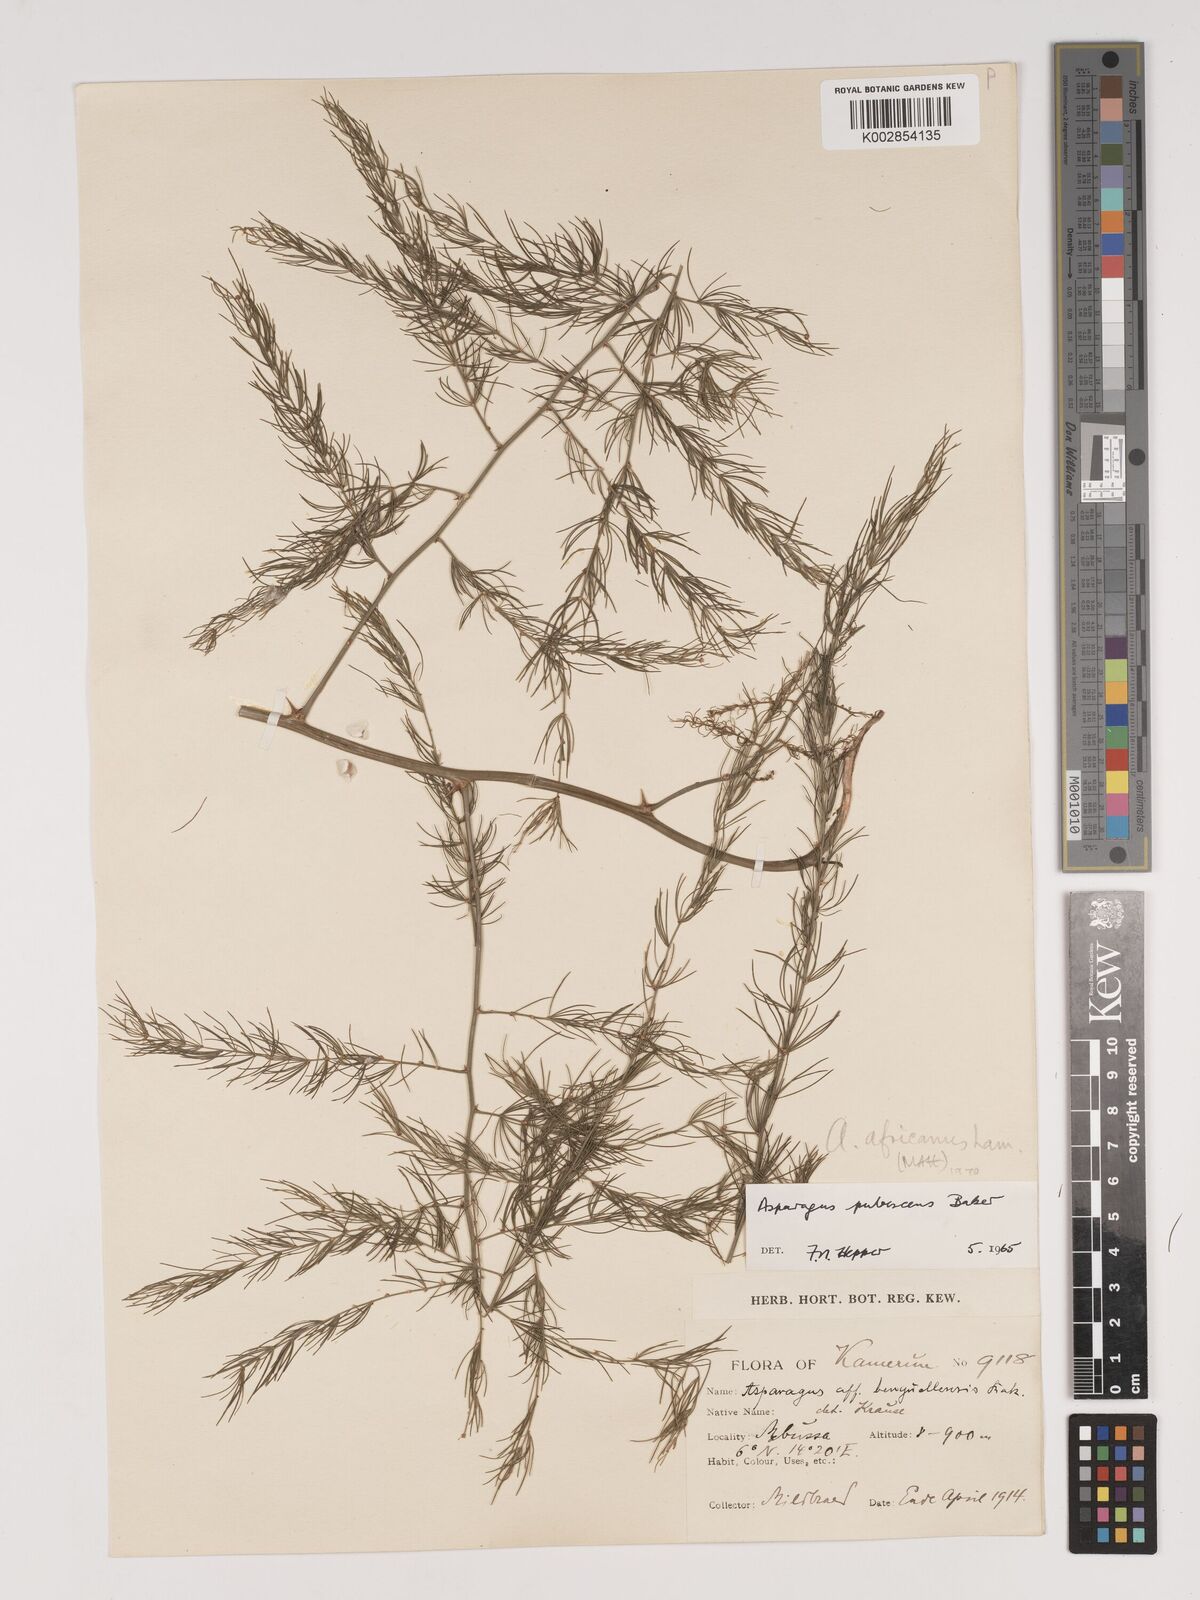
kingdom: Plantae
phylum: Tracheophyta
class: Liliopsida
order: Asparagales
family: Asparagaceae
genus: Asparagus
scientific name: Asparagus africanus
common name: Asparagus-fern
